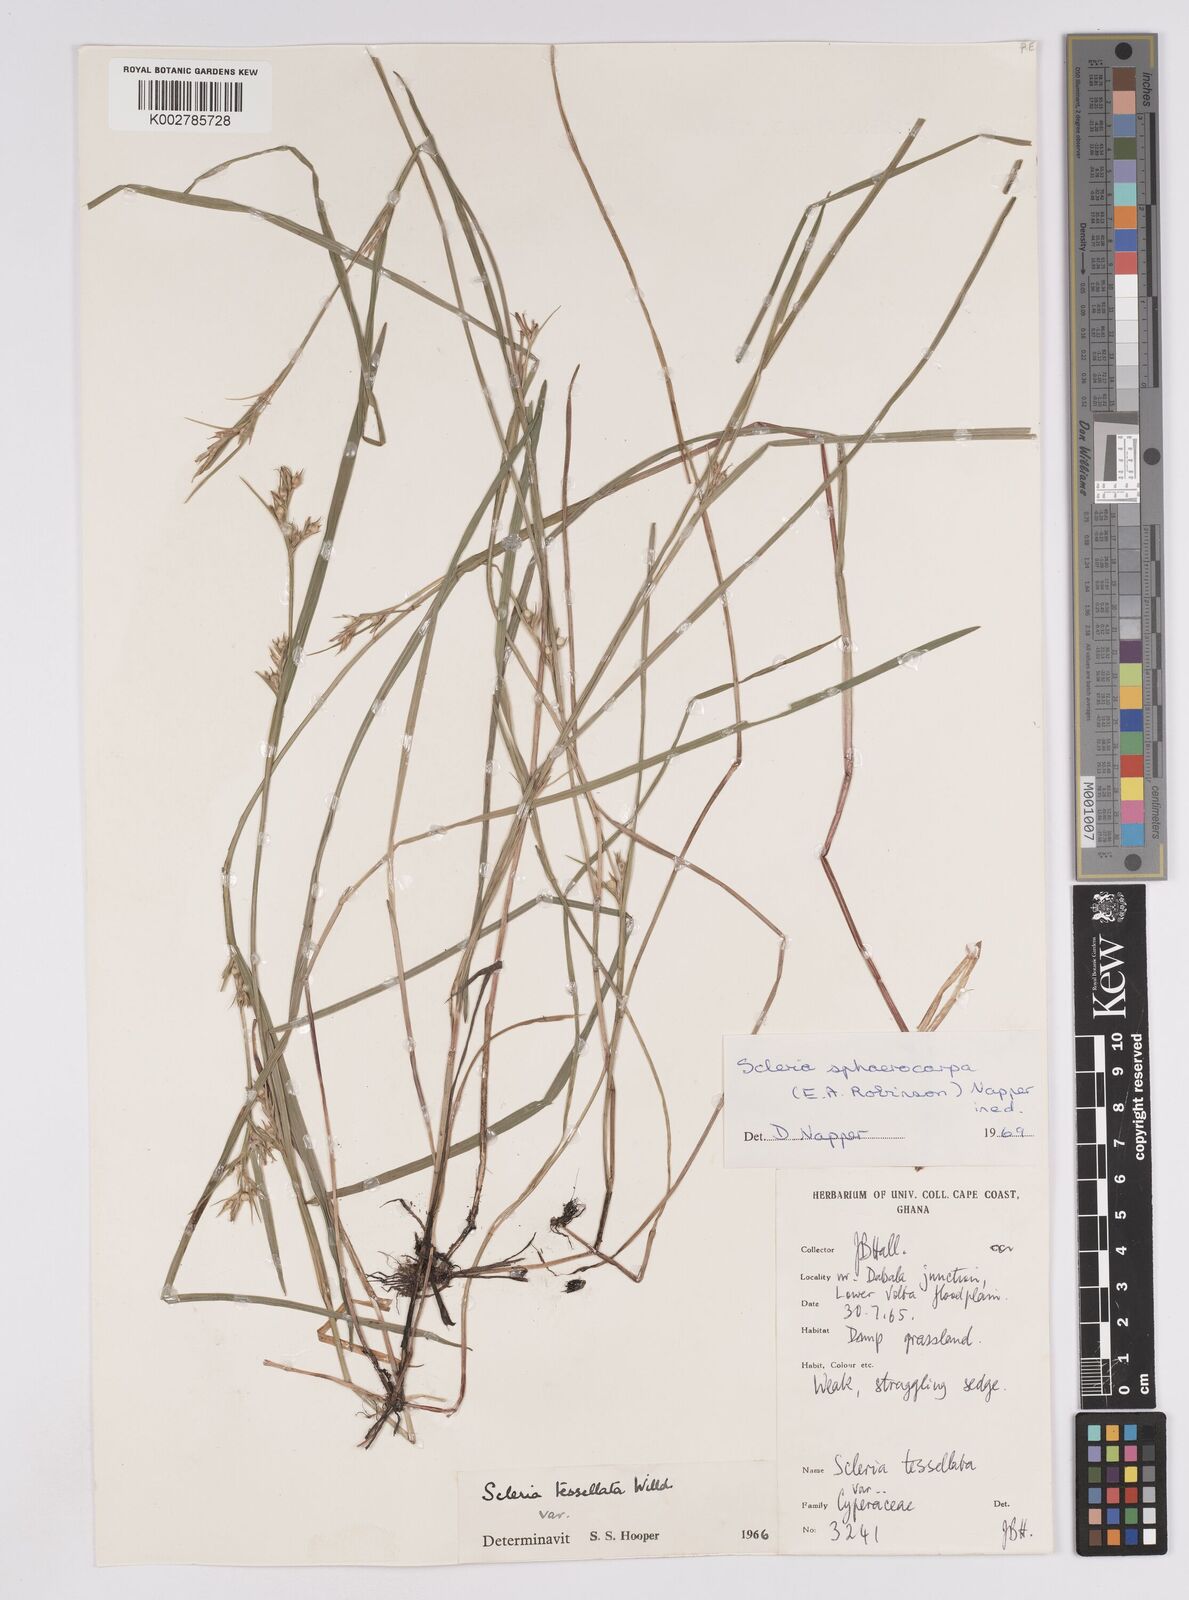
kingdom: Plantae
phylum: Tracheophyta
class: Liliopsida
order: Poales
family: Cyperaceae
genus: Scleria
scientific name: Scleria tessellata
